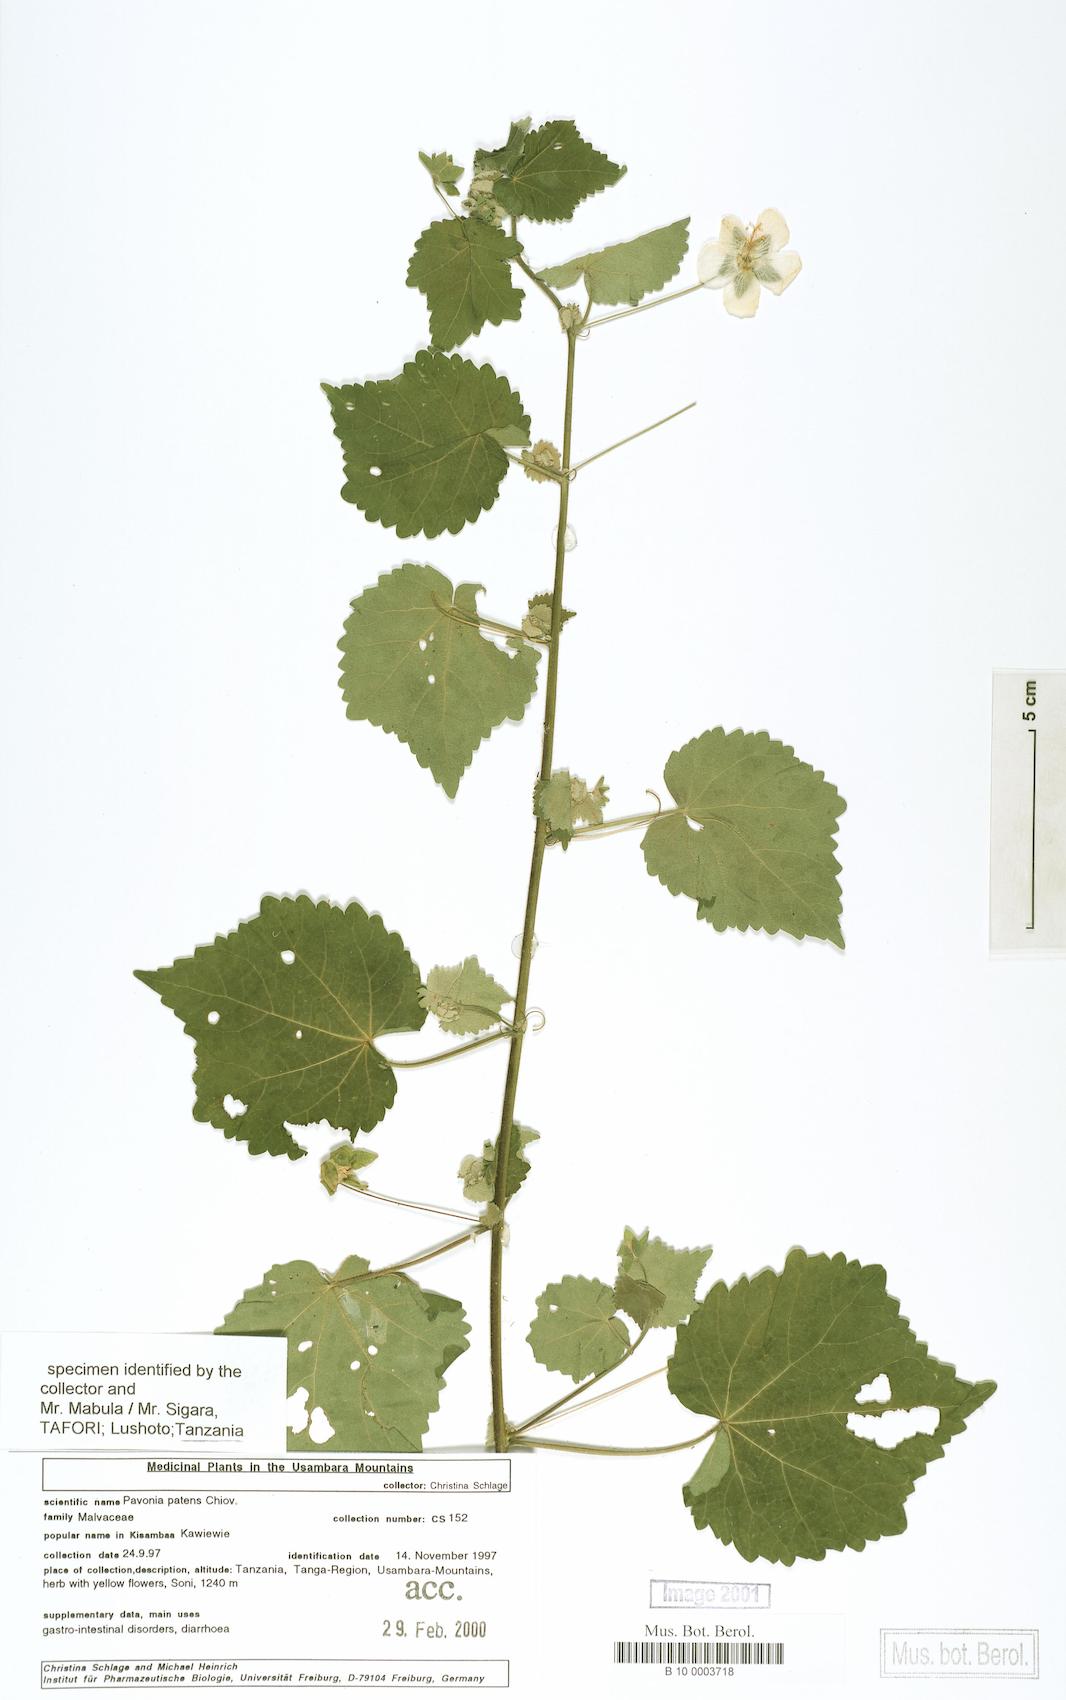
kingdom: Plantae
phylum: Tracheophyta
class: Magnoliopsida
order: Malvales
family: Malvaceae
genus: Abutilon
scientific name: Abutilon mauritianum
